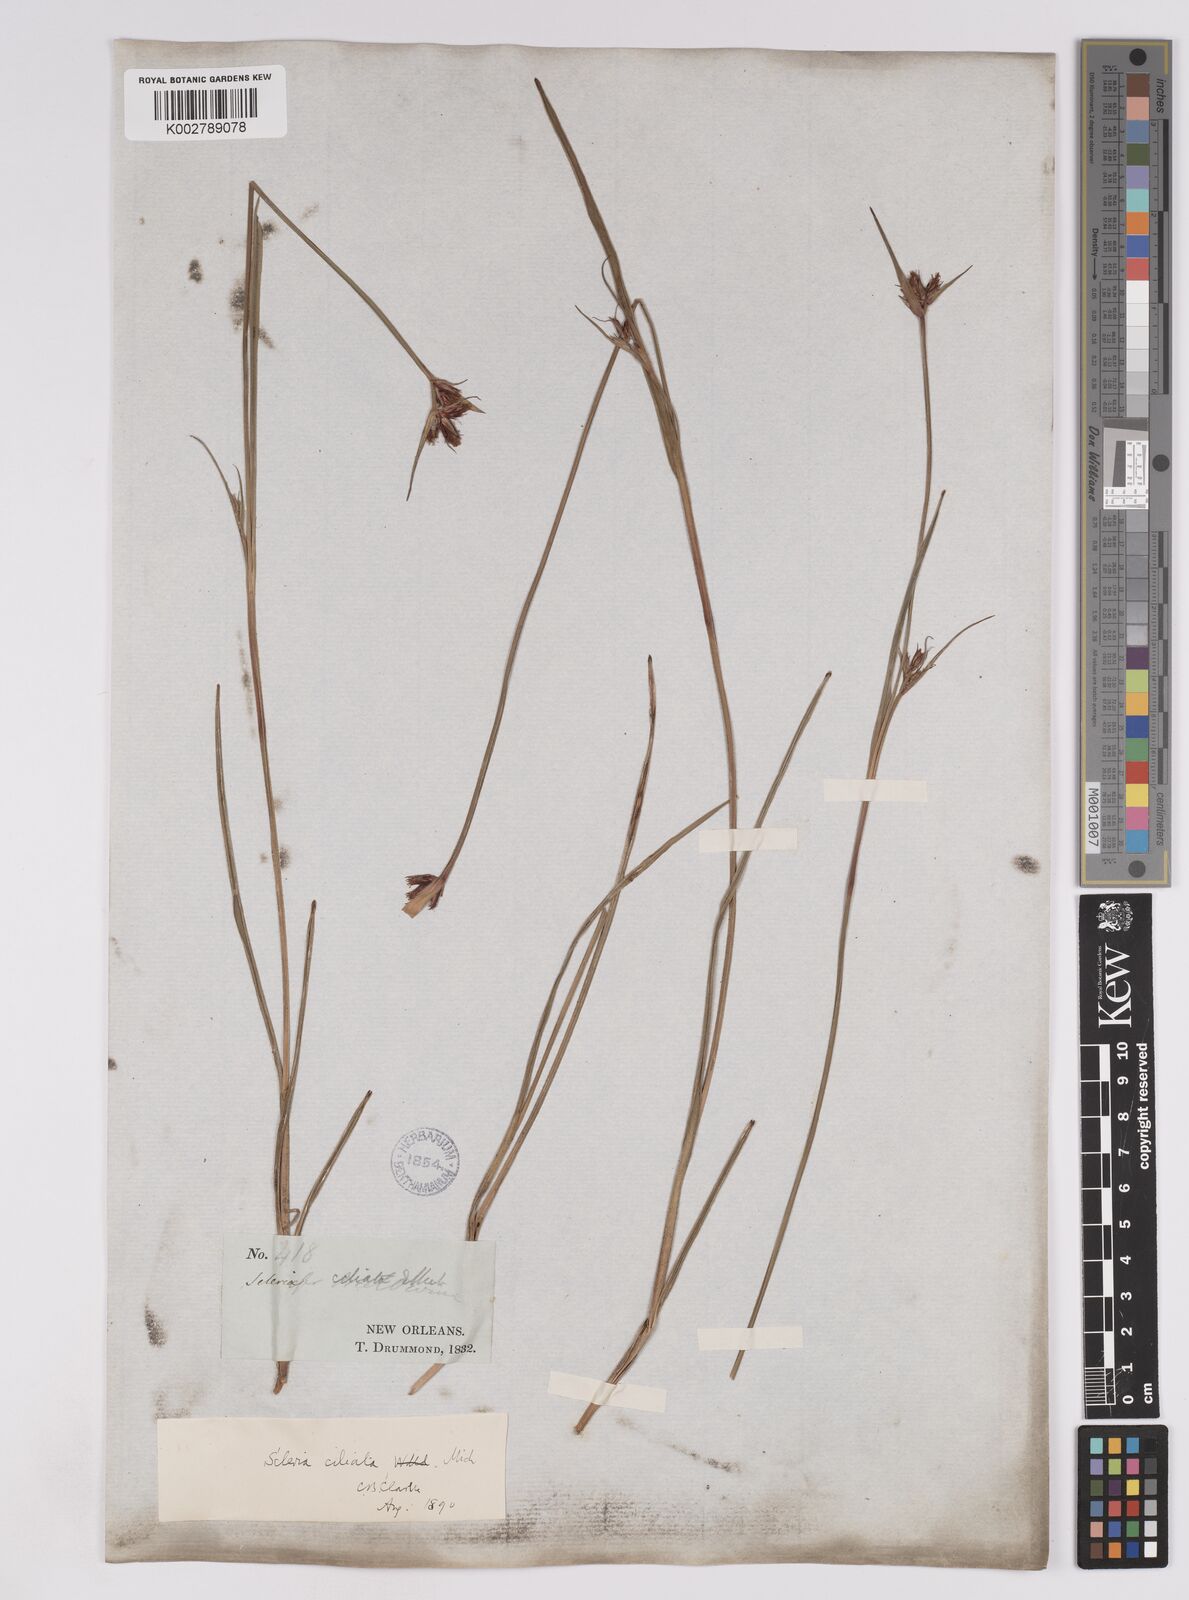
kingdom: Plantae
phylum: Tracheophyta
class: Liliopsida
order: Poales
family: Cyperaceae
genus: Scleria
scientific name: Scleria ciliata
